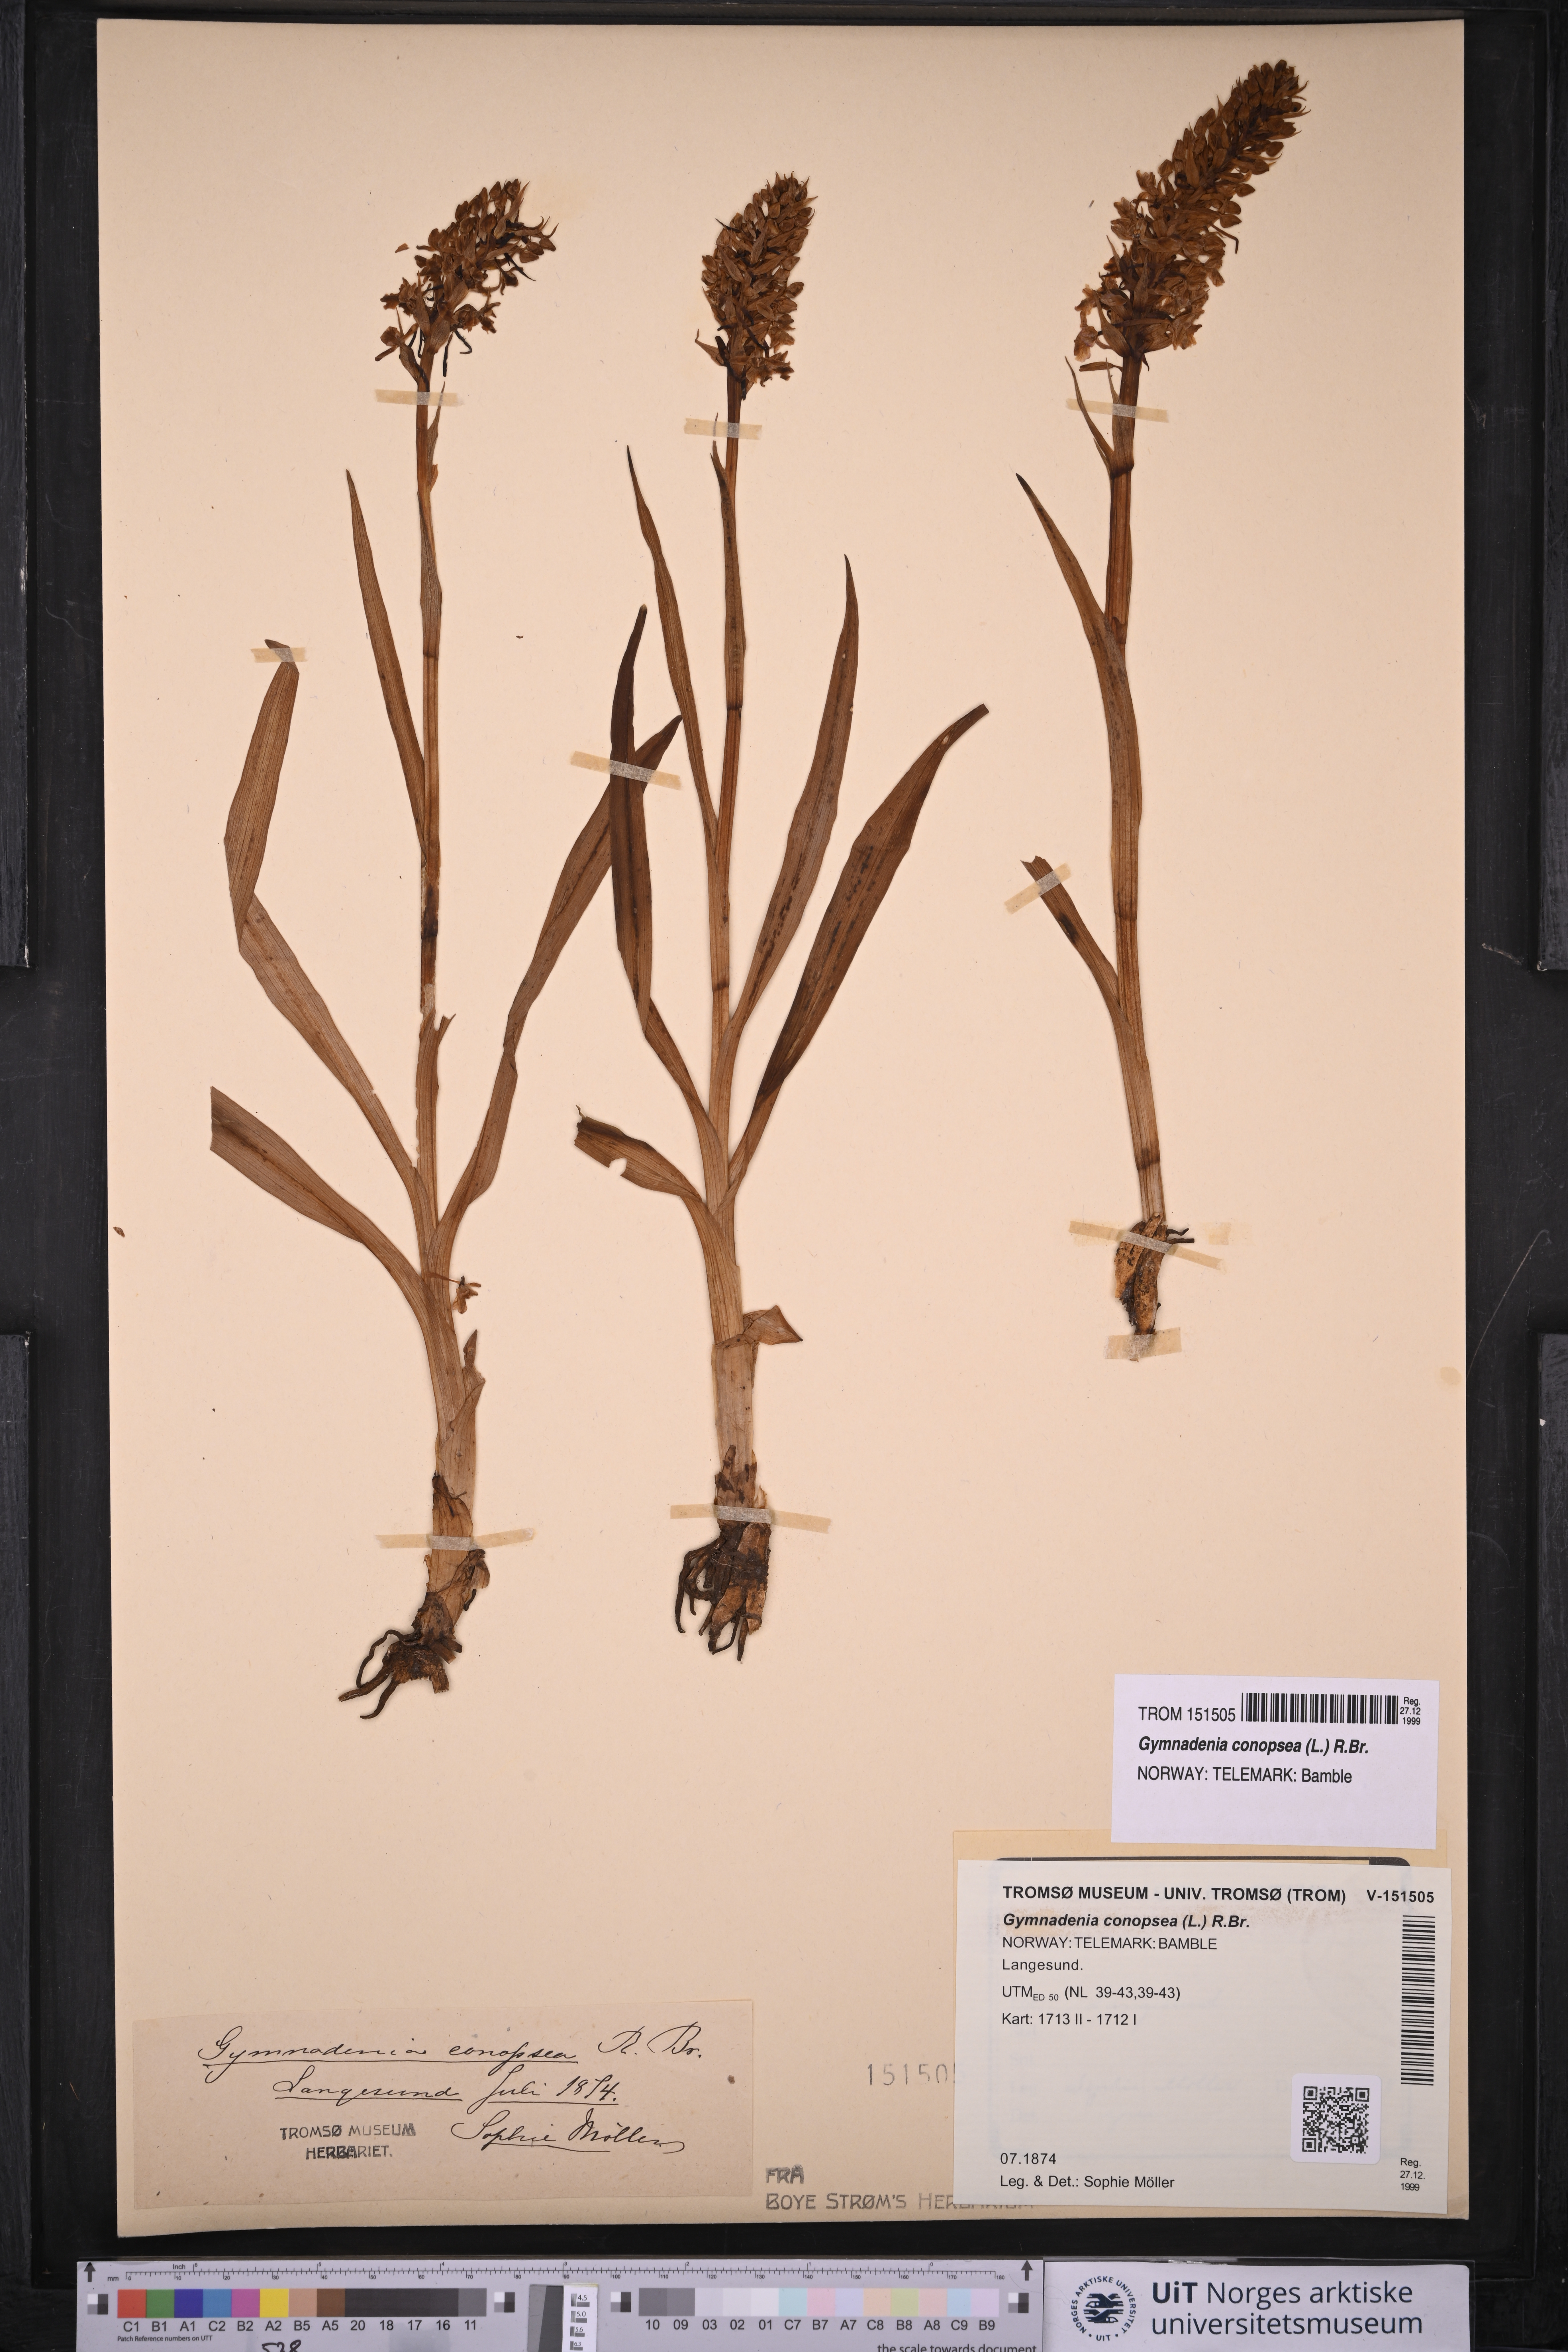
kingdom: Plantae
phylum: Tracheophyta
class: Liliopsida
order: Asparagales
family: Orchidaceae
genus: Gymnadenia
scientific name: Gymnadenia conopsea
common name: Fragrant orchid
